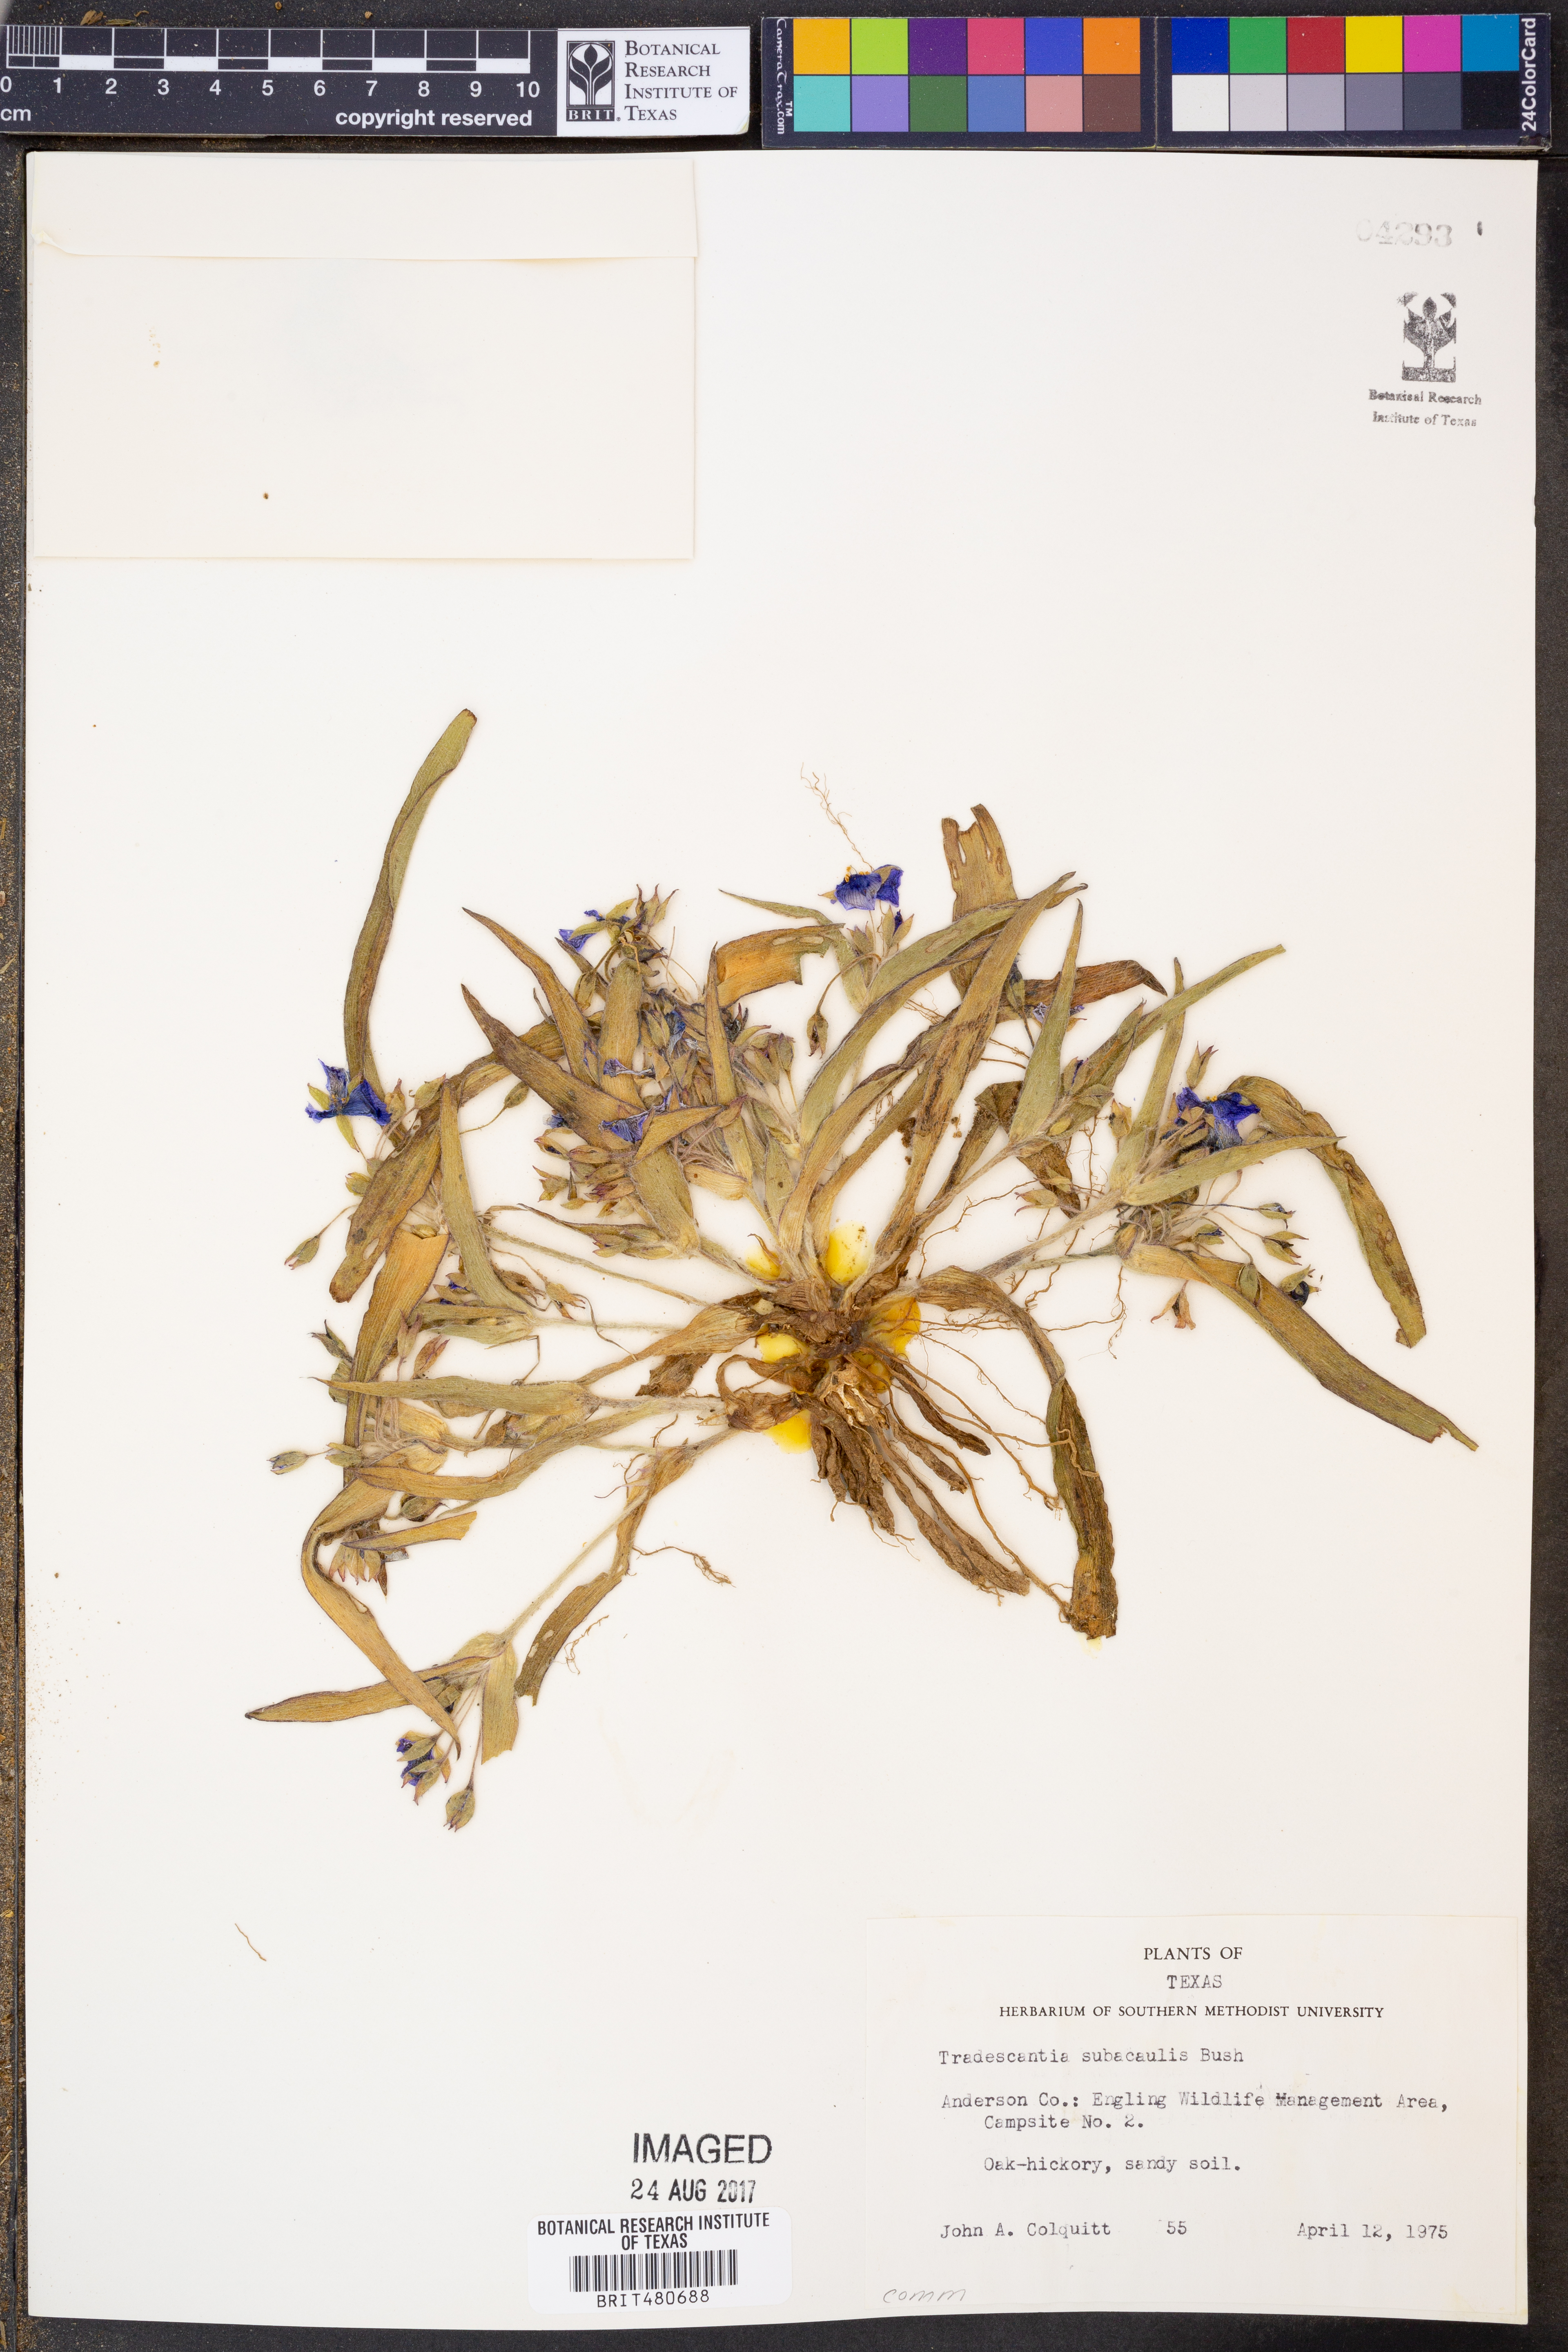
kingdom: Plantae
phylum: Tracheophyta
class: Liliopsida
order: Commelinales
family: Commelinaceae
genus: Tradescantia
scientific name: Tradescantia subacaulis
